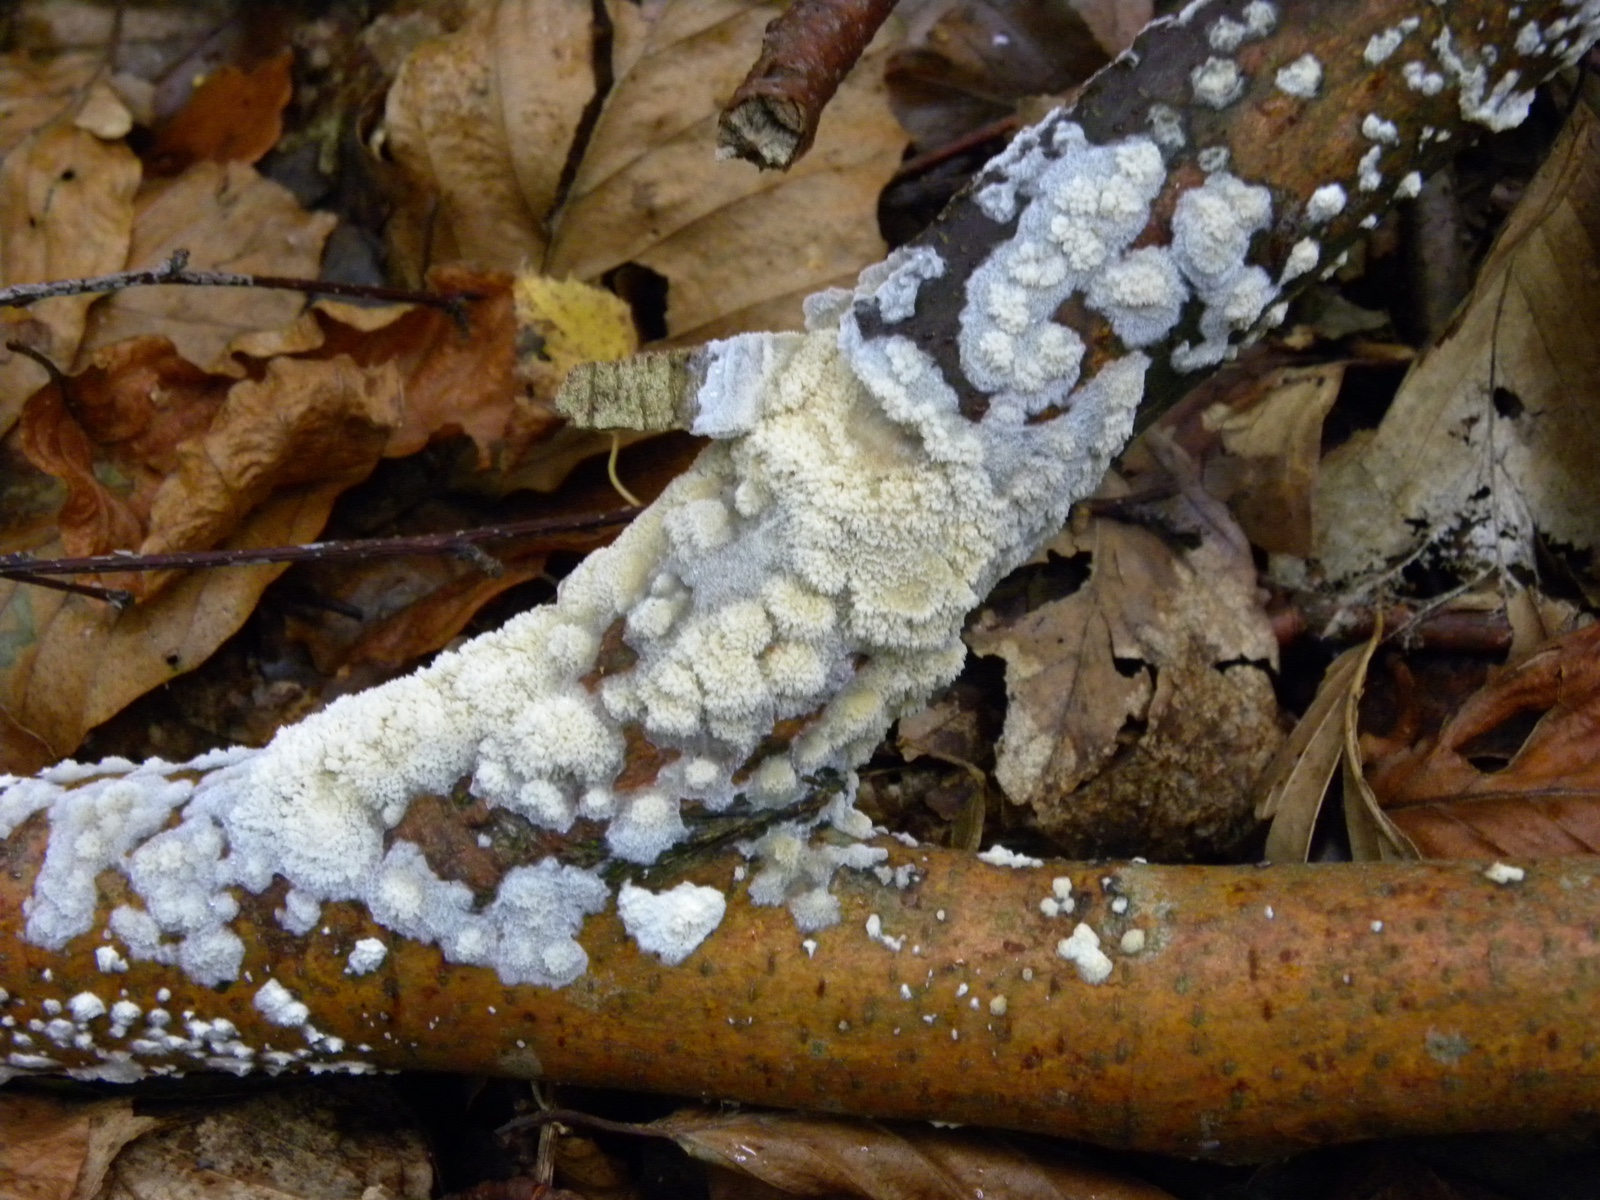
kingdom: Fungi
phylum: Basidiomycota
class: Agaricomycetes
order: Corticiales
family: Corticiaceae
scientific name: Corticiaceae
